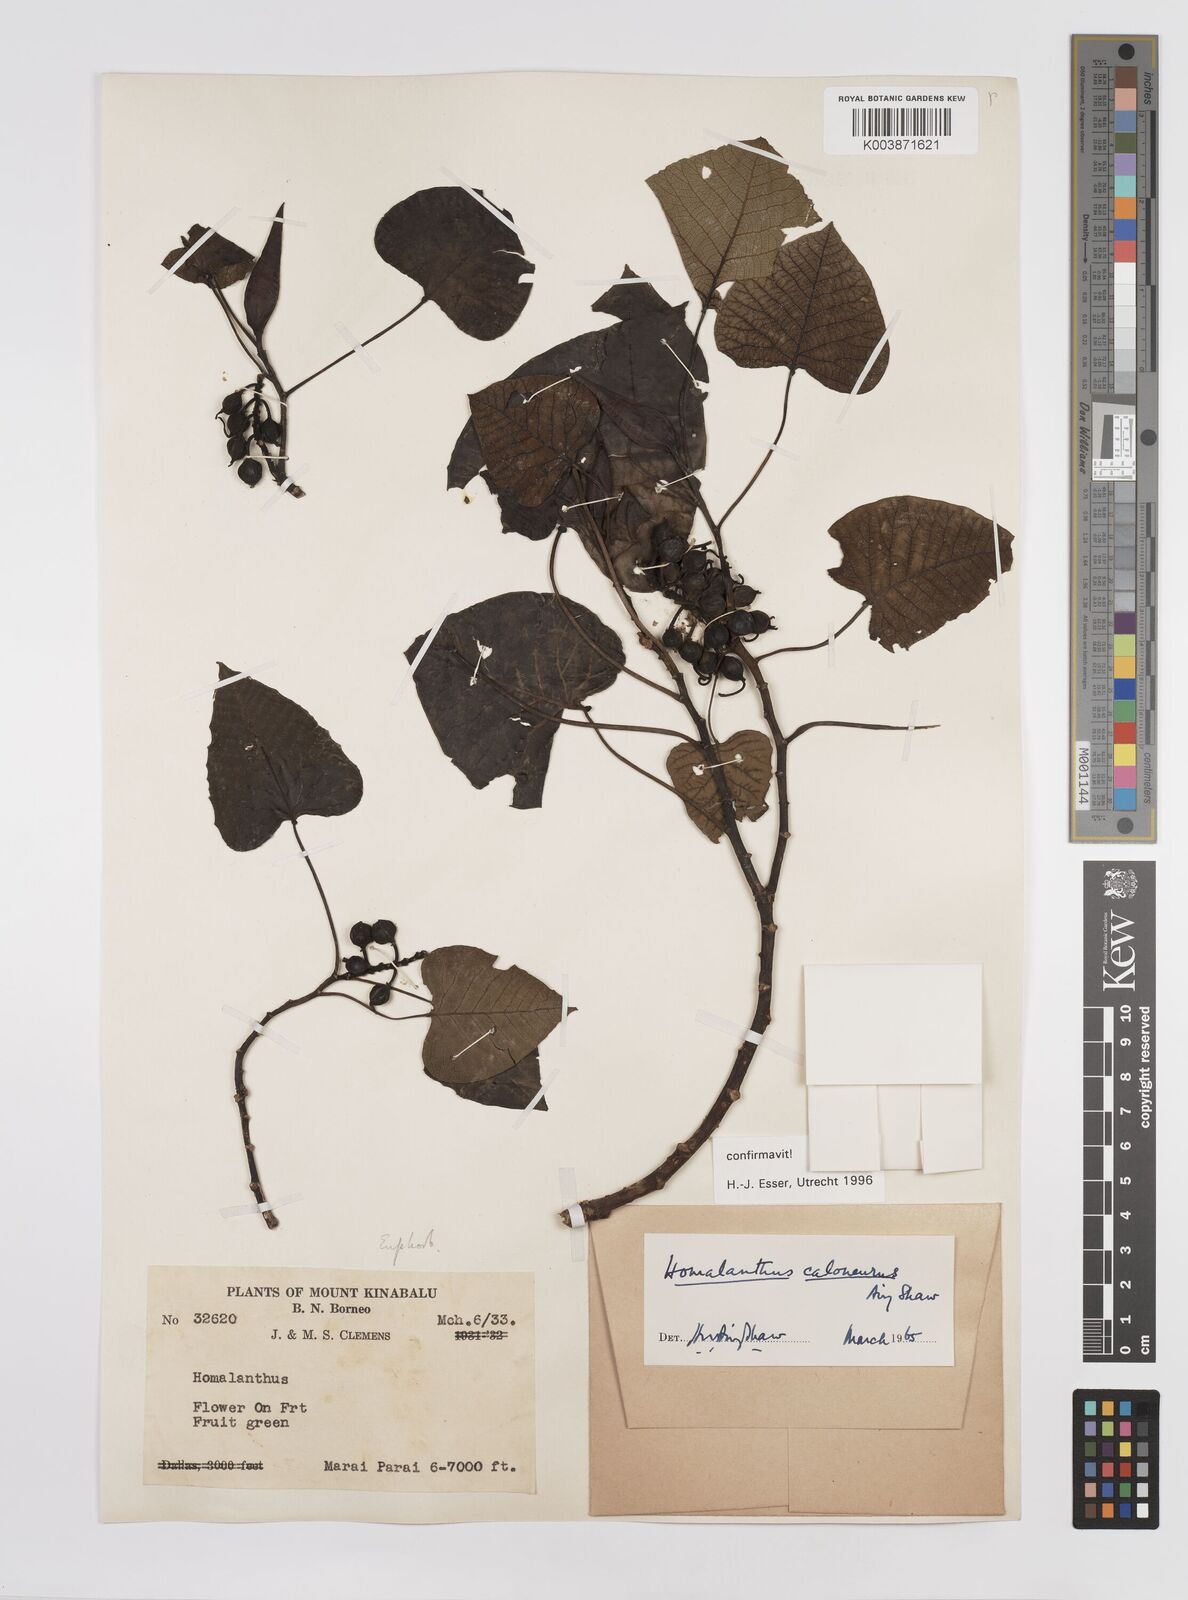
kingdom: Plantae
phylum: Tracheophyta
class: Magnoliopsida
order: Malpighiales
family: Euphorbiaceae
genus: Homalanthus
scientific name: Homalanthus caloneurus
